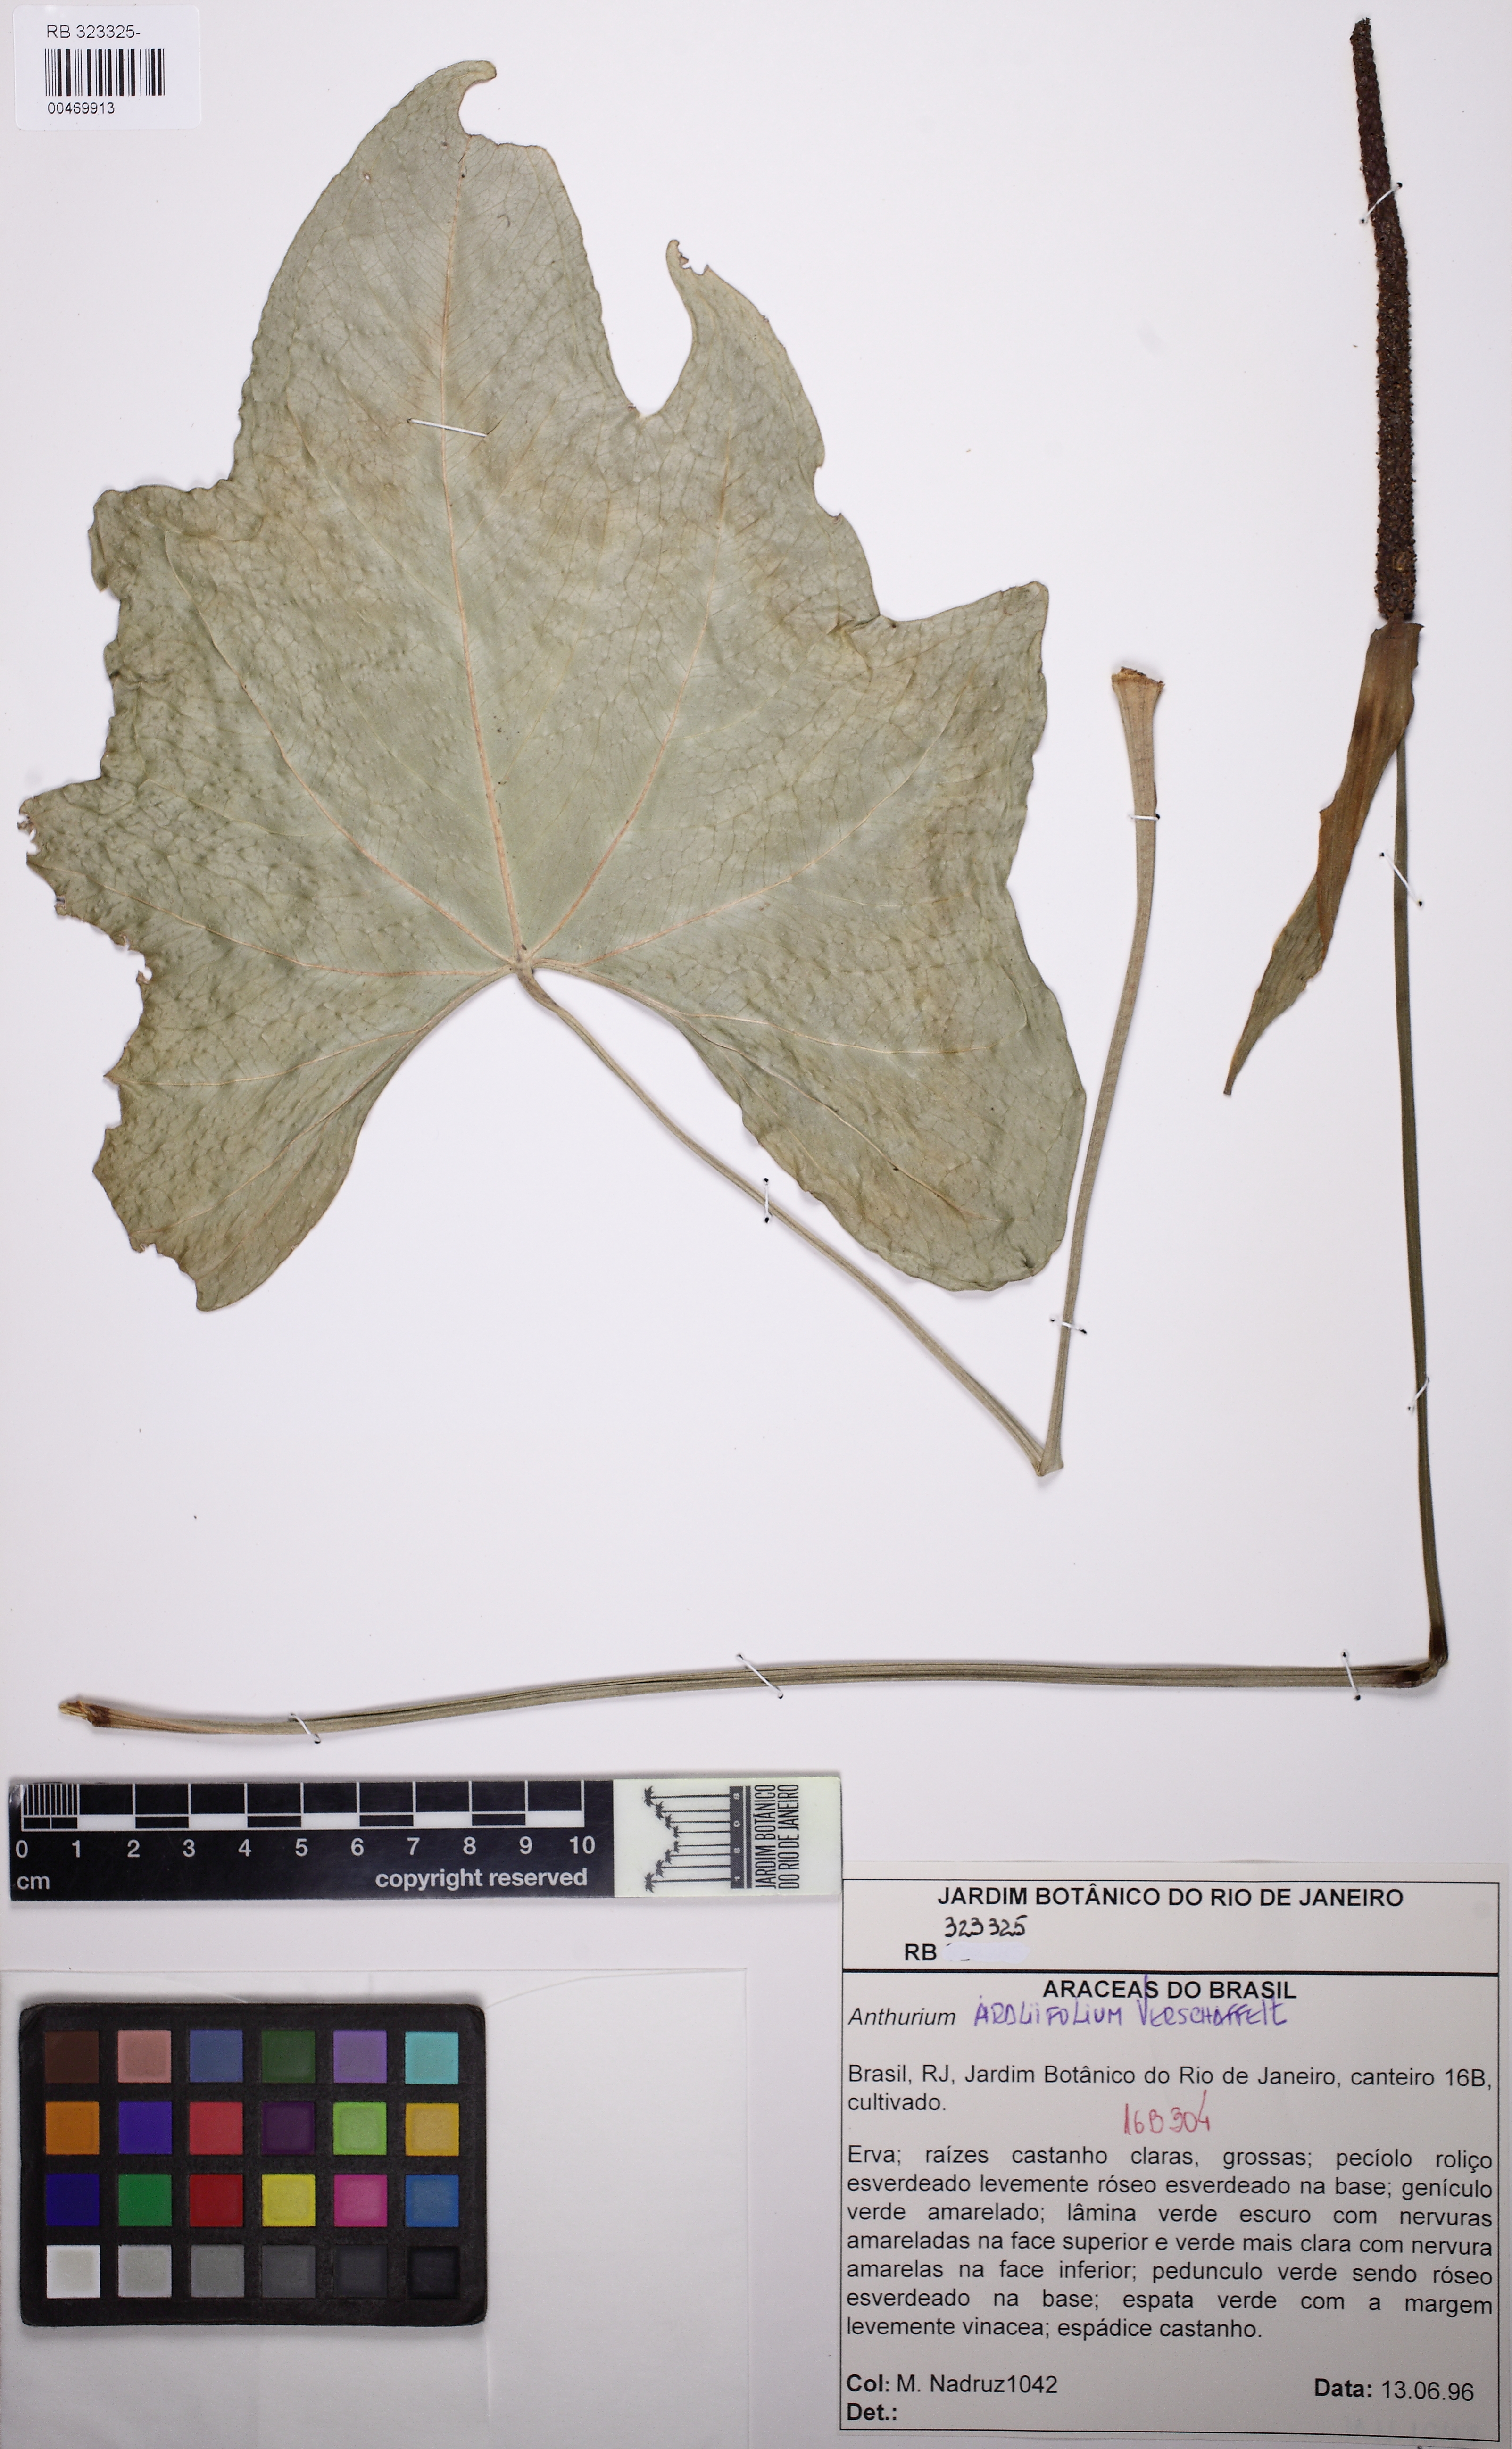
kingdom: Plantae
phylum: Tracheophyta
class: Liliopsida
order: Alismatales
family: Araceae
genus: Anthurium
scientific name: Anthurium araliifolium
